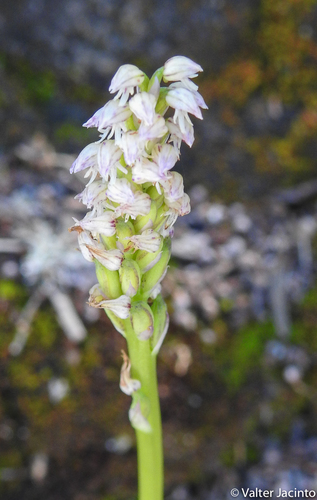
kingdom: Plantae
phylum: Tracheophyta
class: Liliopsida
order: Asparagales
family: Orchidaceae
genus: Neotinea
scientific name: Neotinea maculata
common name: Dense-flowered orchid
